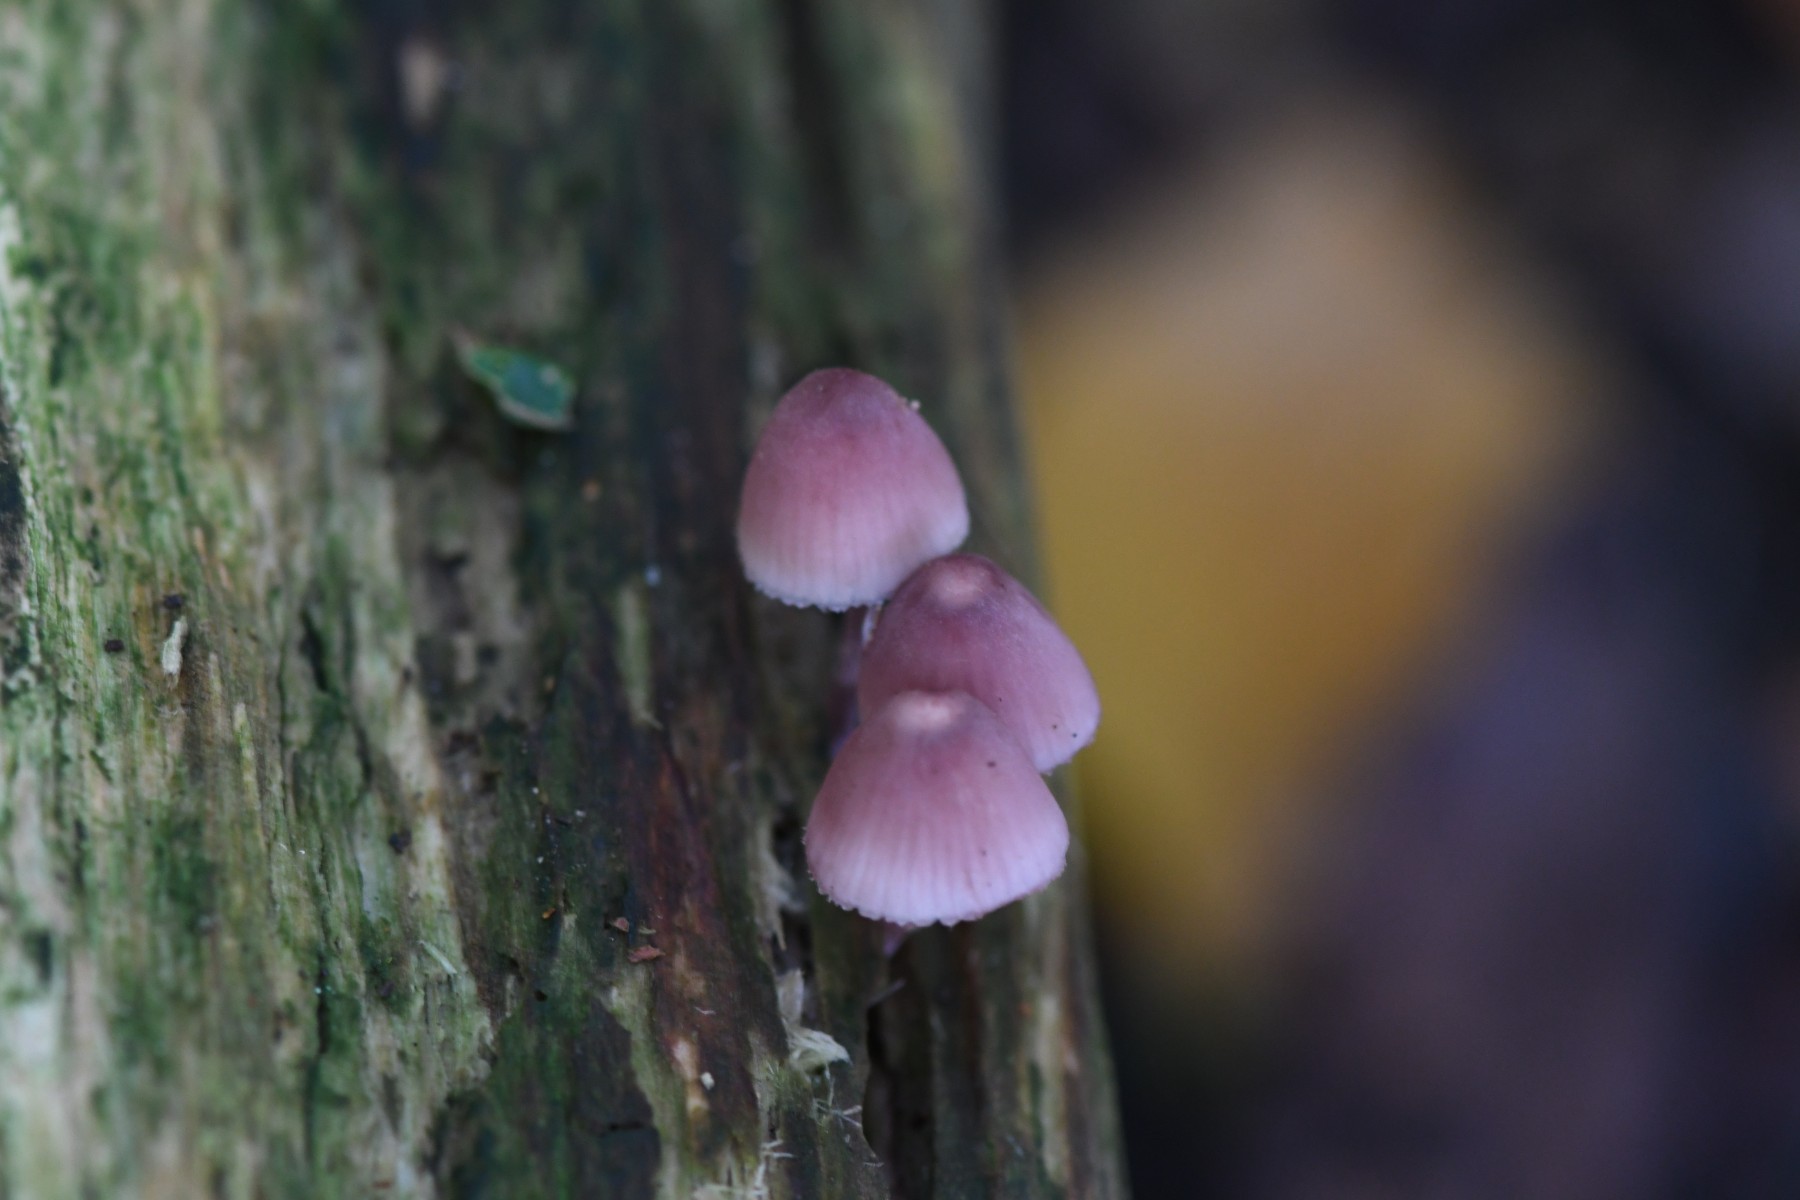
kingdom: Fungi
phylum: Basidiomycota
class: Agaricomycetes
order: Agaricales
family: Mycenaceae
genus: Mycena
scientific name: Mycena haematopus
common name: blødende huesvamp
